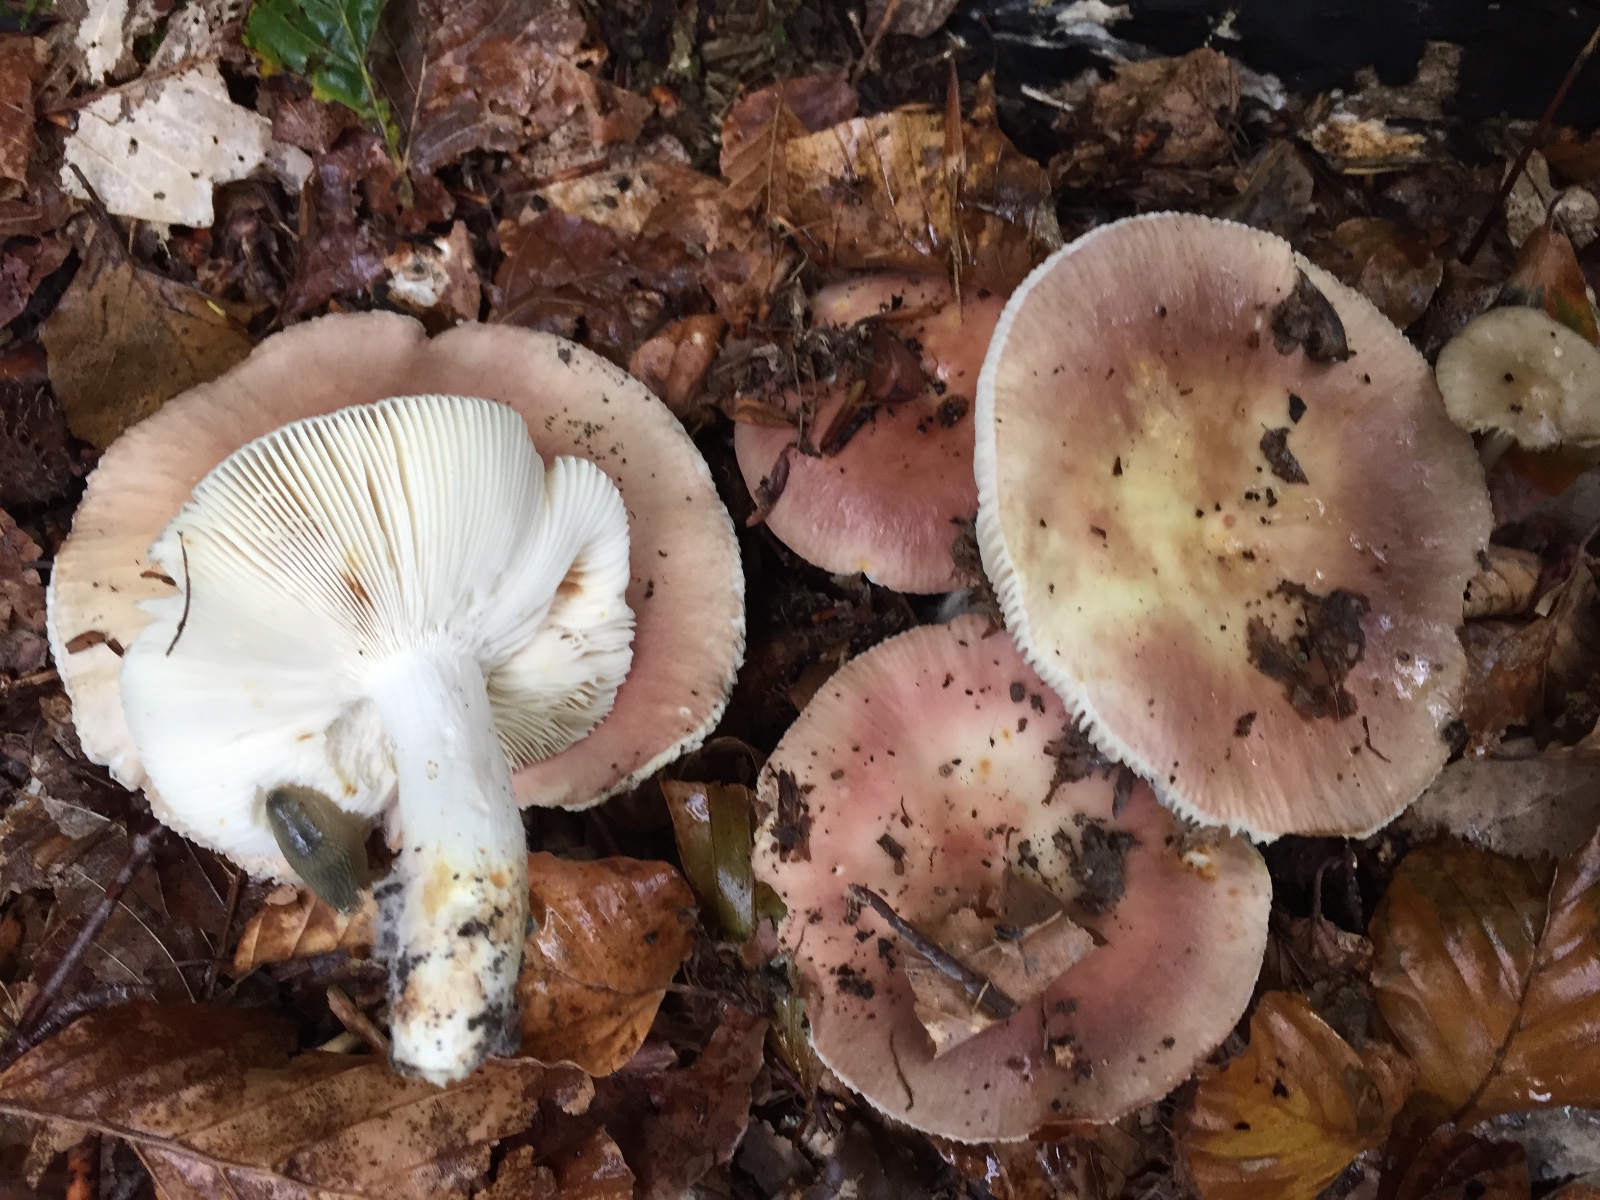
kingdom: Fungi
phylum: Basidiomycota
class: Agaricomycetes
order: Russulales
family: Russulaceae
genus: Russula
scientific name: Russula vesca
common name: spiselig skørhat
